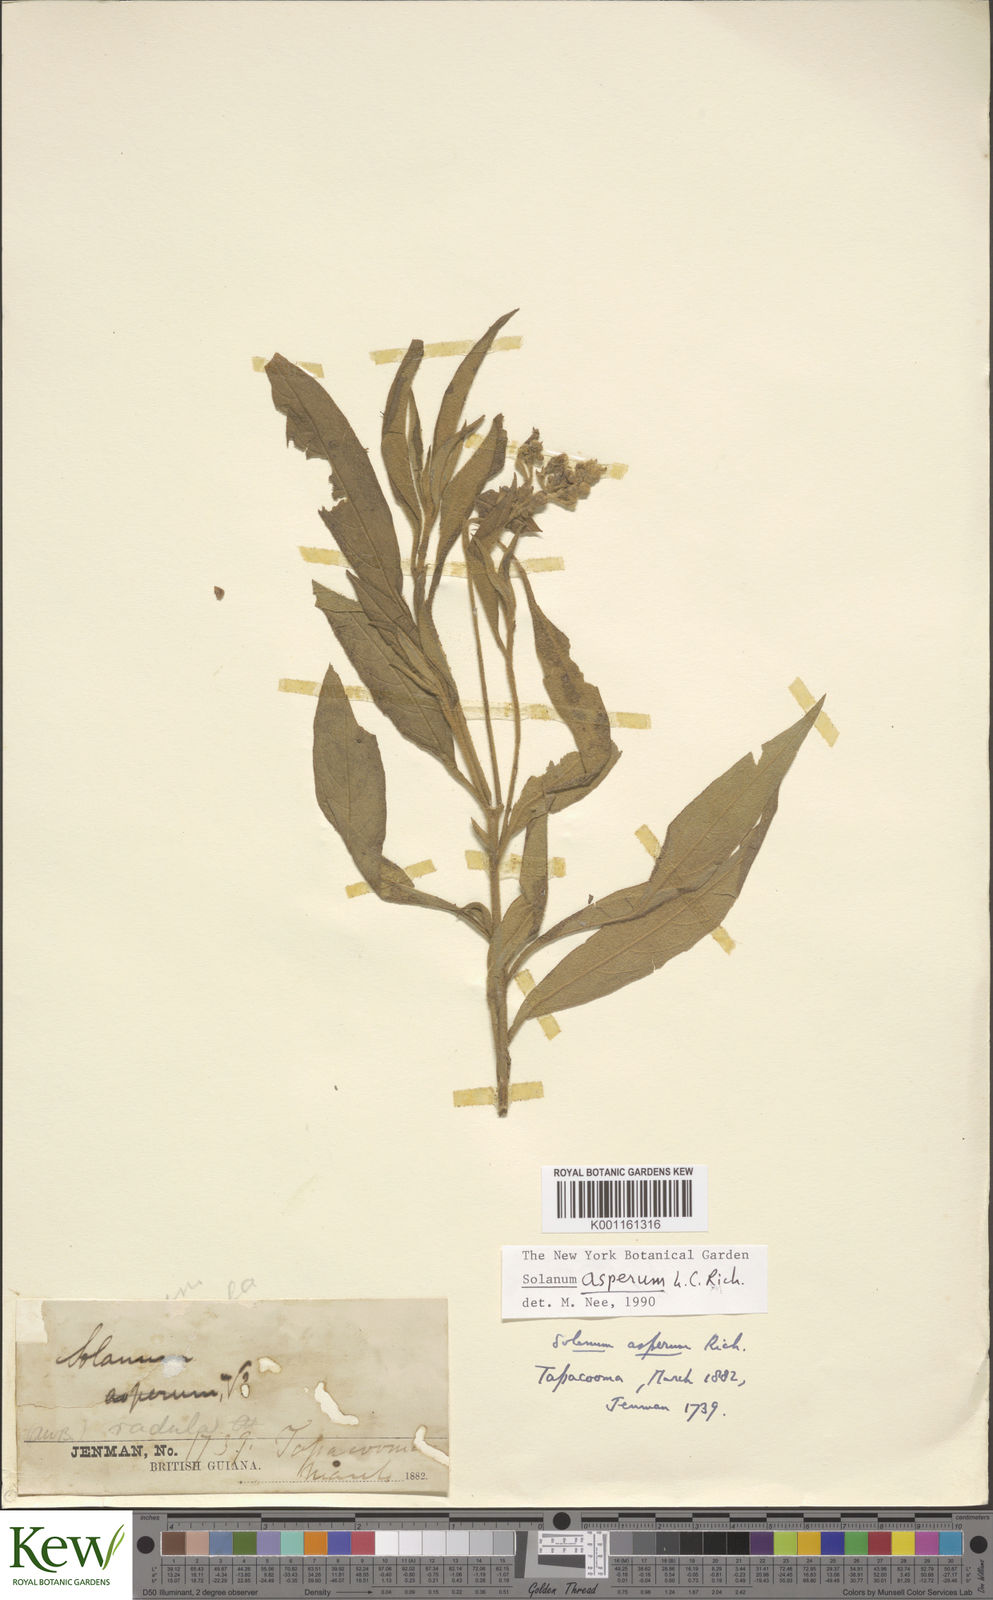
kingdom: Plantae
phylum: Tracheophyta
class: Magnoliopsida
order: Solanales
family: Solanaceae
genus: Solanum
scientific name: Solanum asperum
